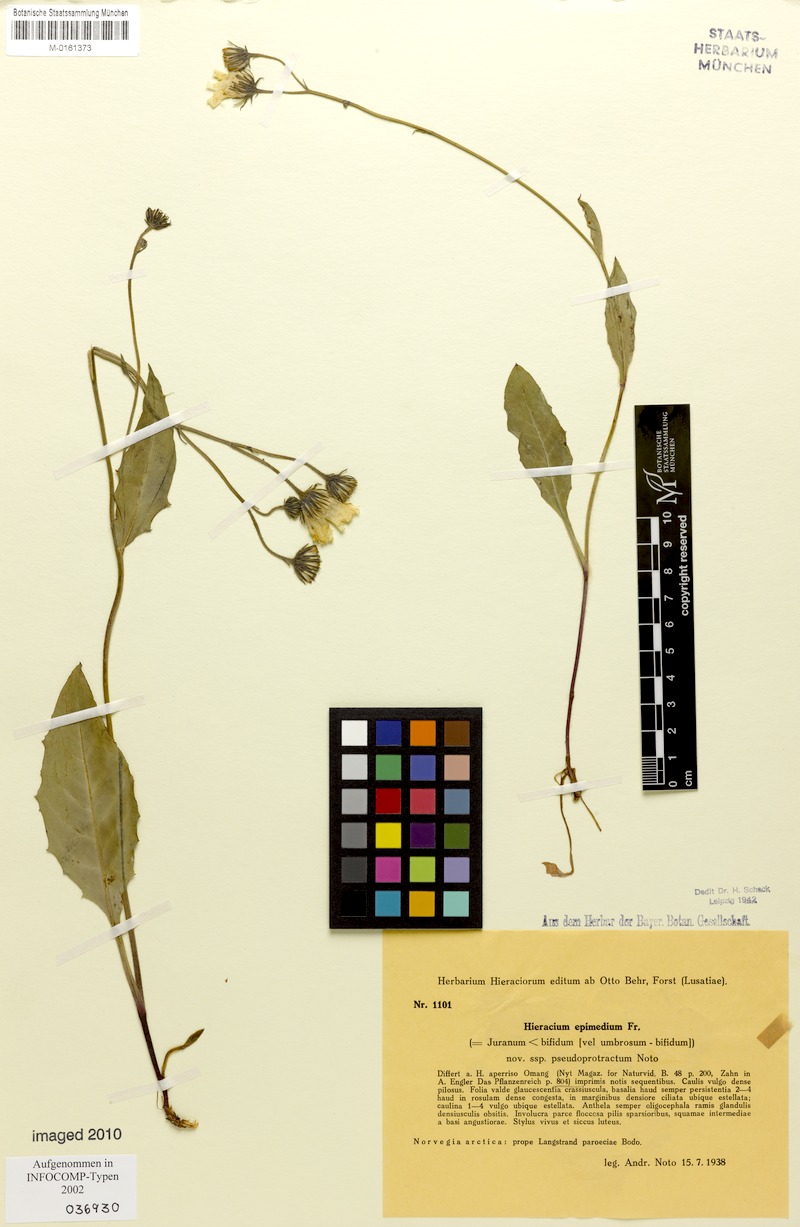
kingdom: Plantae
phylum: Tracheophyta
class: Magnoliopsida
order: Asterales
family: Asteraceae
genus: Hieracium
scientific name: Hieracium froelichianum
